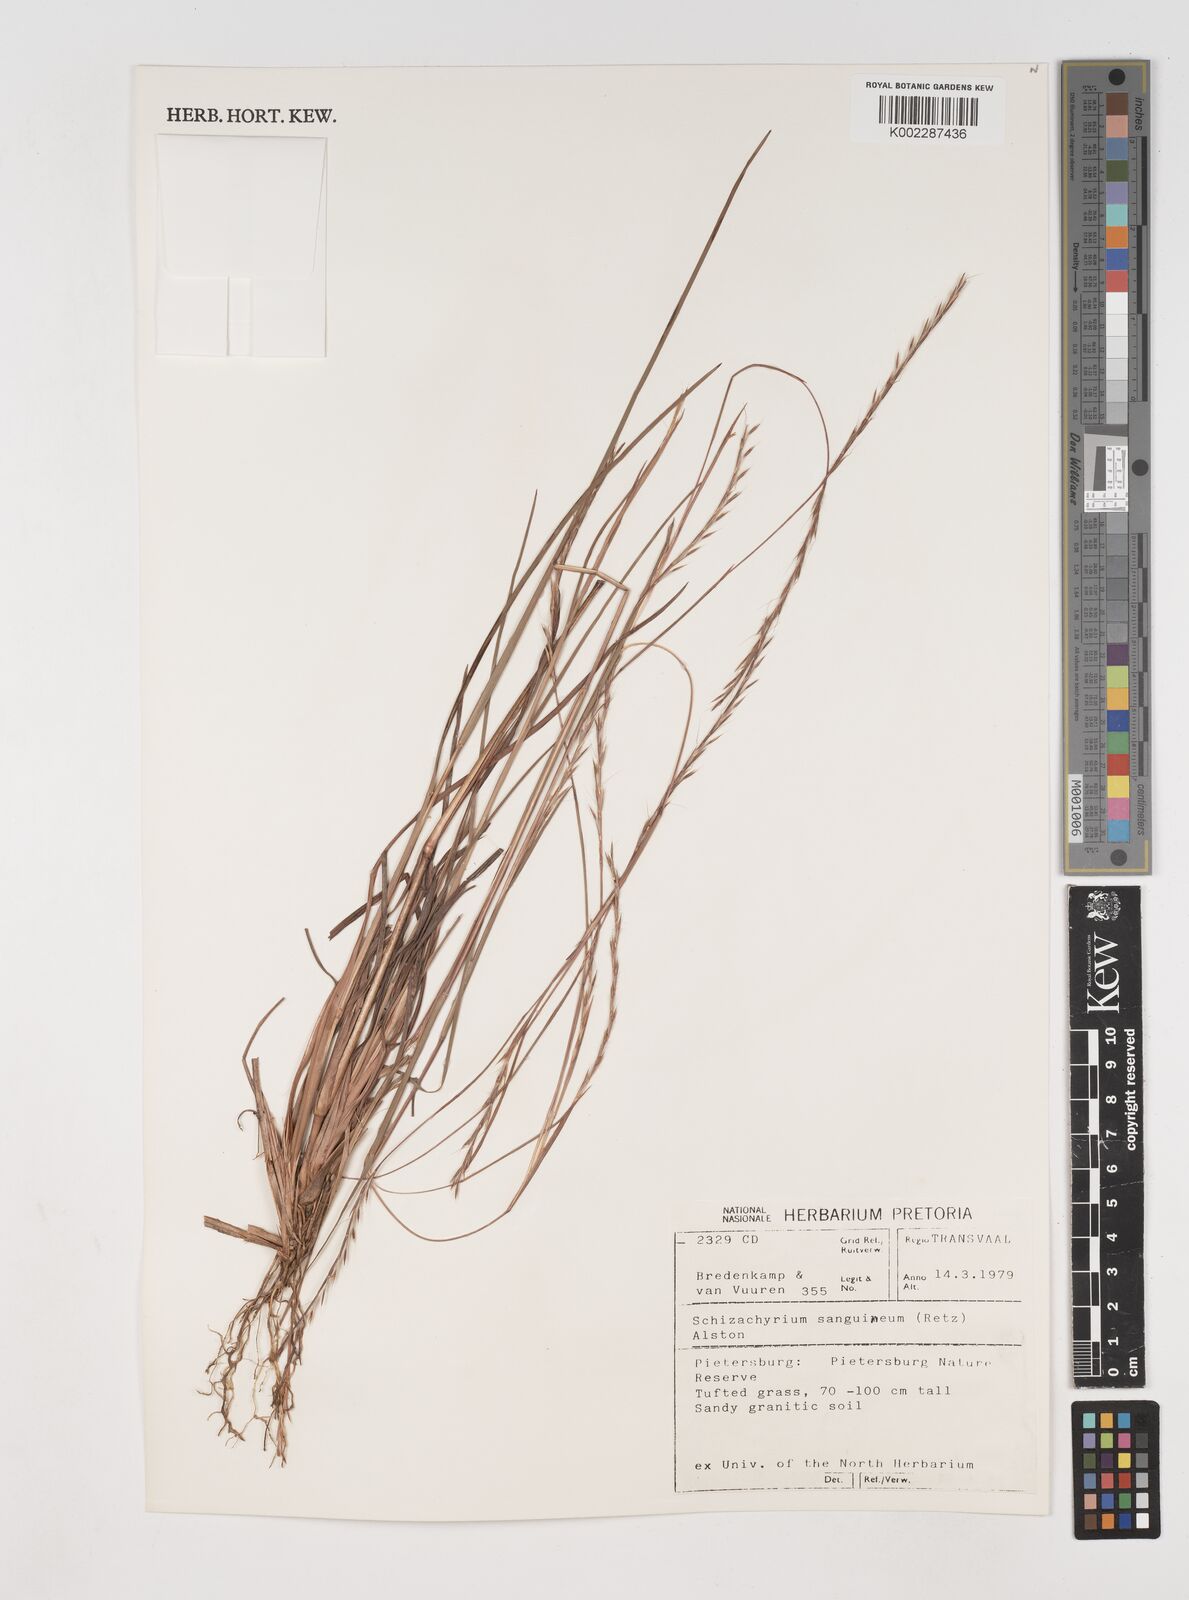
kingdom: Plantae
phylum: Tracheophyta
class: Liliopsida
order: Poales
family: Poaceae
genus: Schizachyrium
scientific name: Schizachyrium sanguineum
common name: Crimson bluestem
